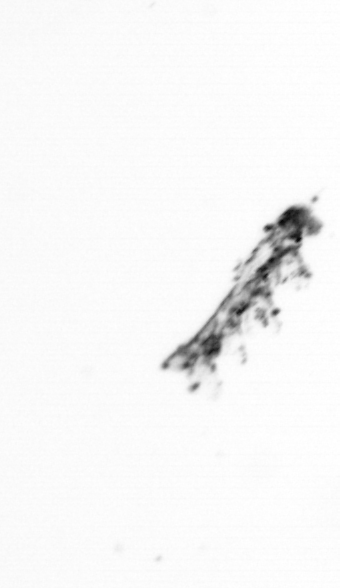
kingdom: Animalia
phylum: Arthropoda
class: Copepoda
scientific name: Copepoda
